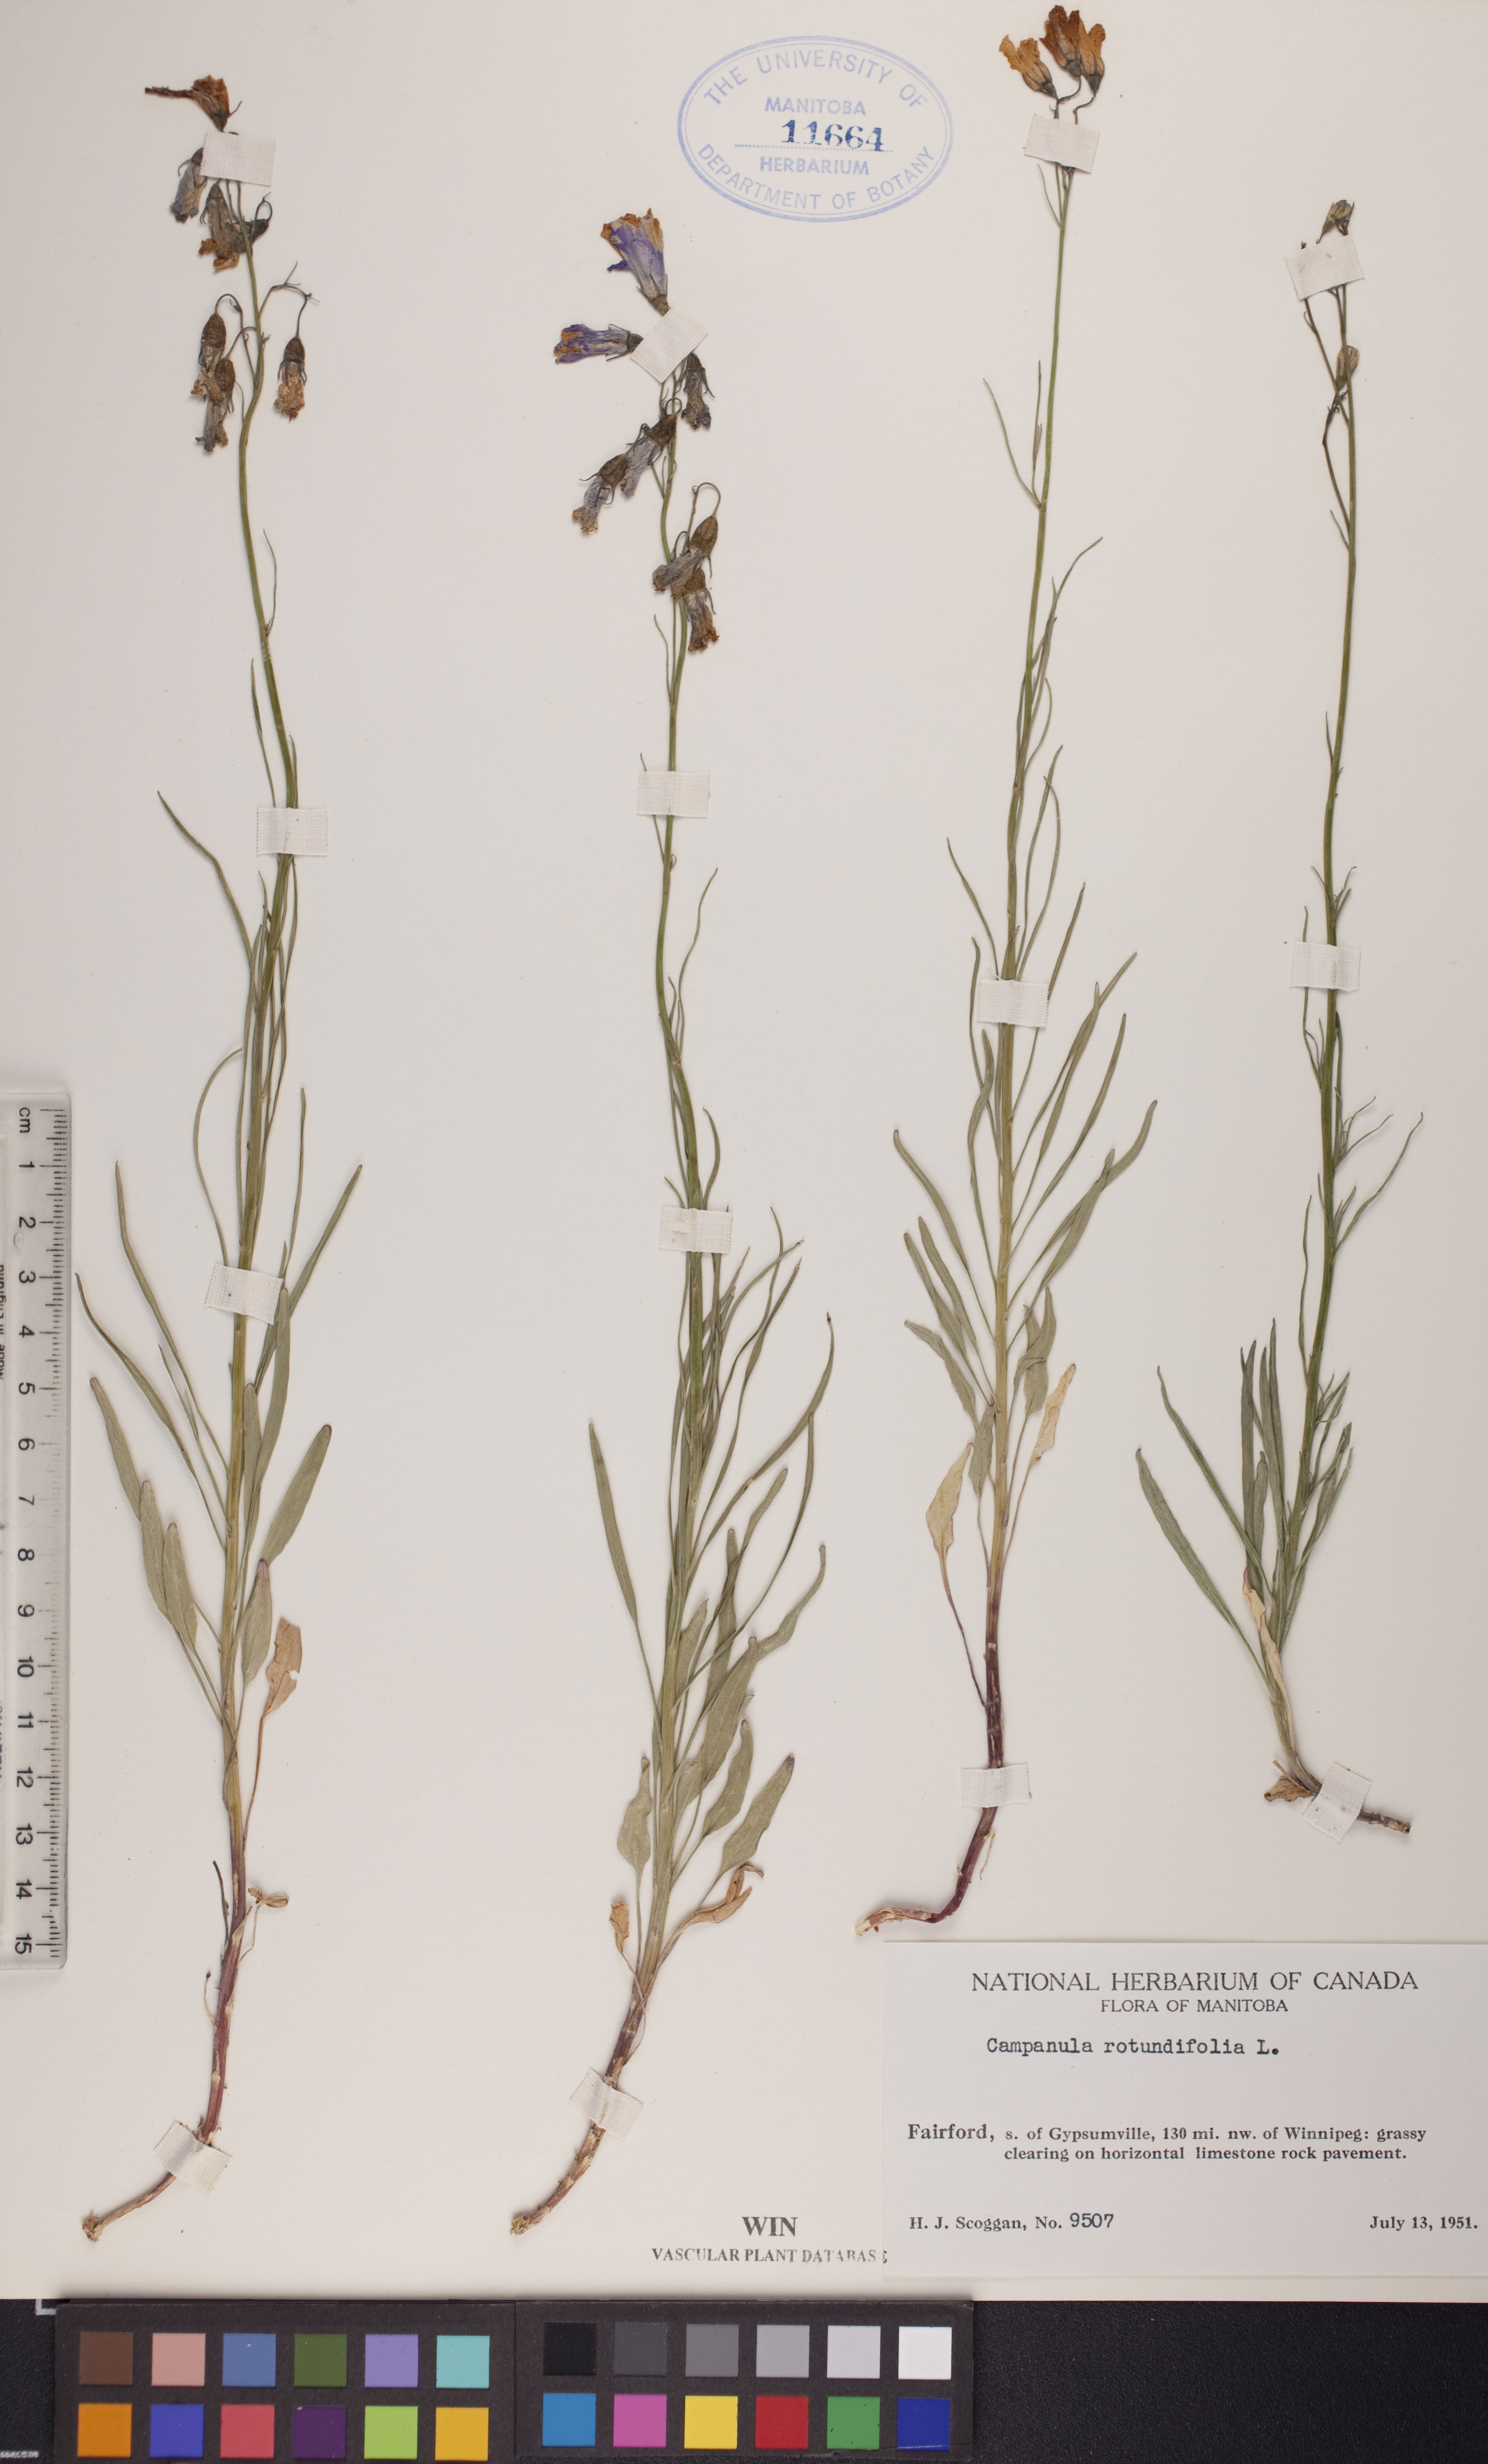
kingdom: Plantae
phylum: Tracheophyta
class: Magnoliopsida
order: Asterales
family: Campanulaceae
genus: Campanula
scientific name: Campanula rotundifolia
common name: Harebell
